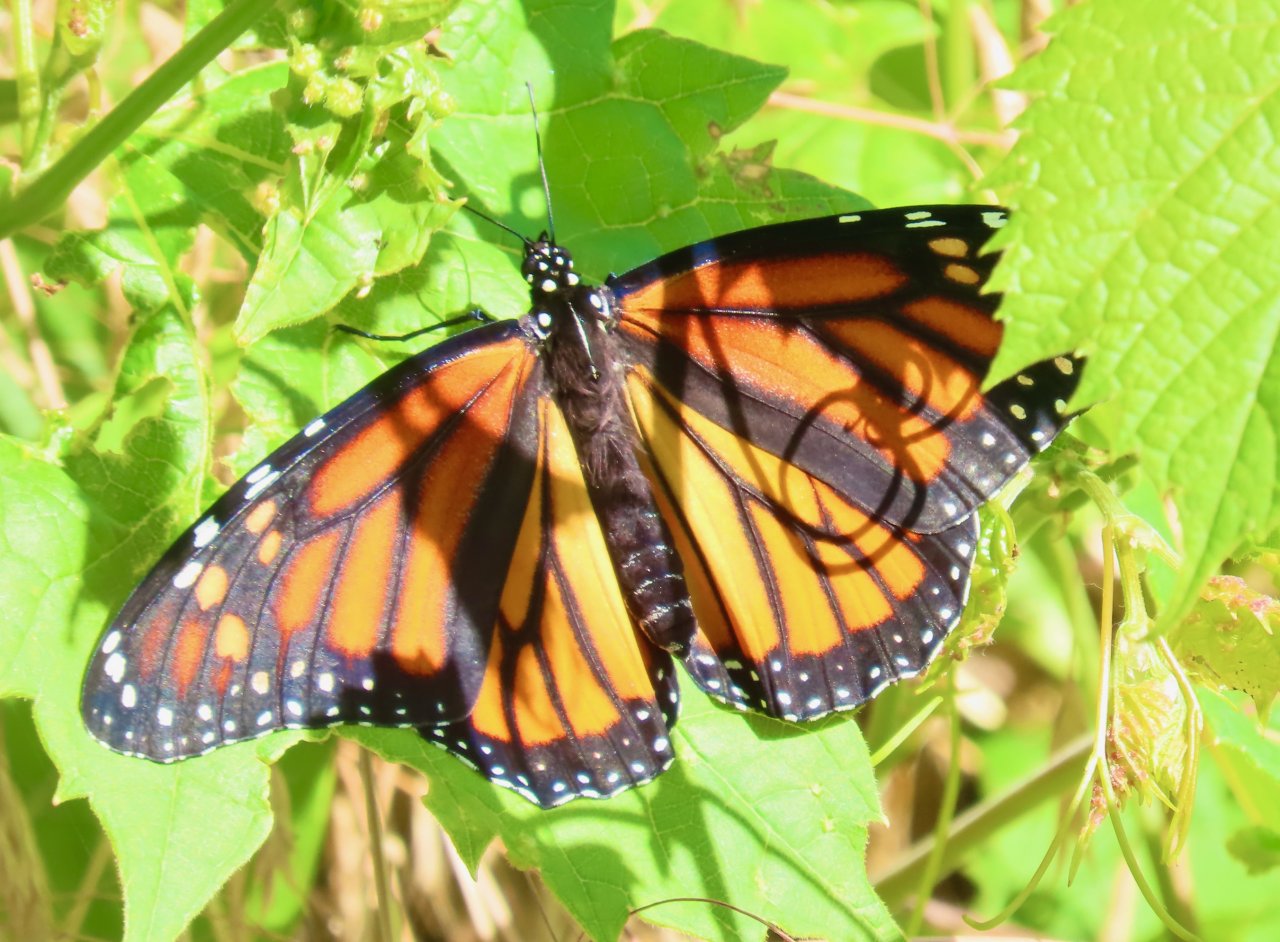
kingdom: Animalia
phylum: Arthropoda
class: Insecta
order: Lepidoptera
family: Nymphalidae
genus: Danaus
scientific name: Danaus plexippus
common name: Monarch
